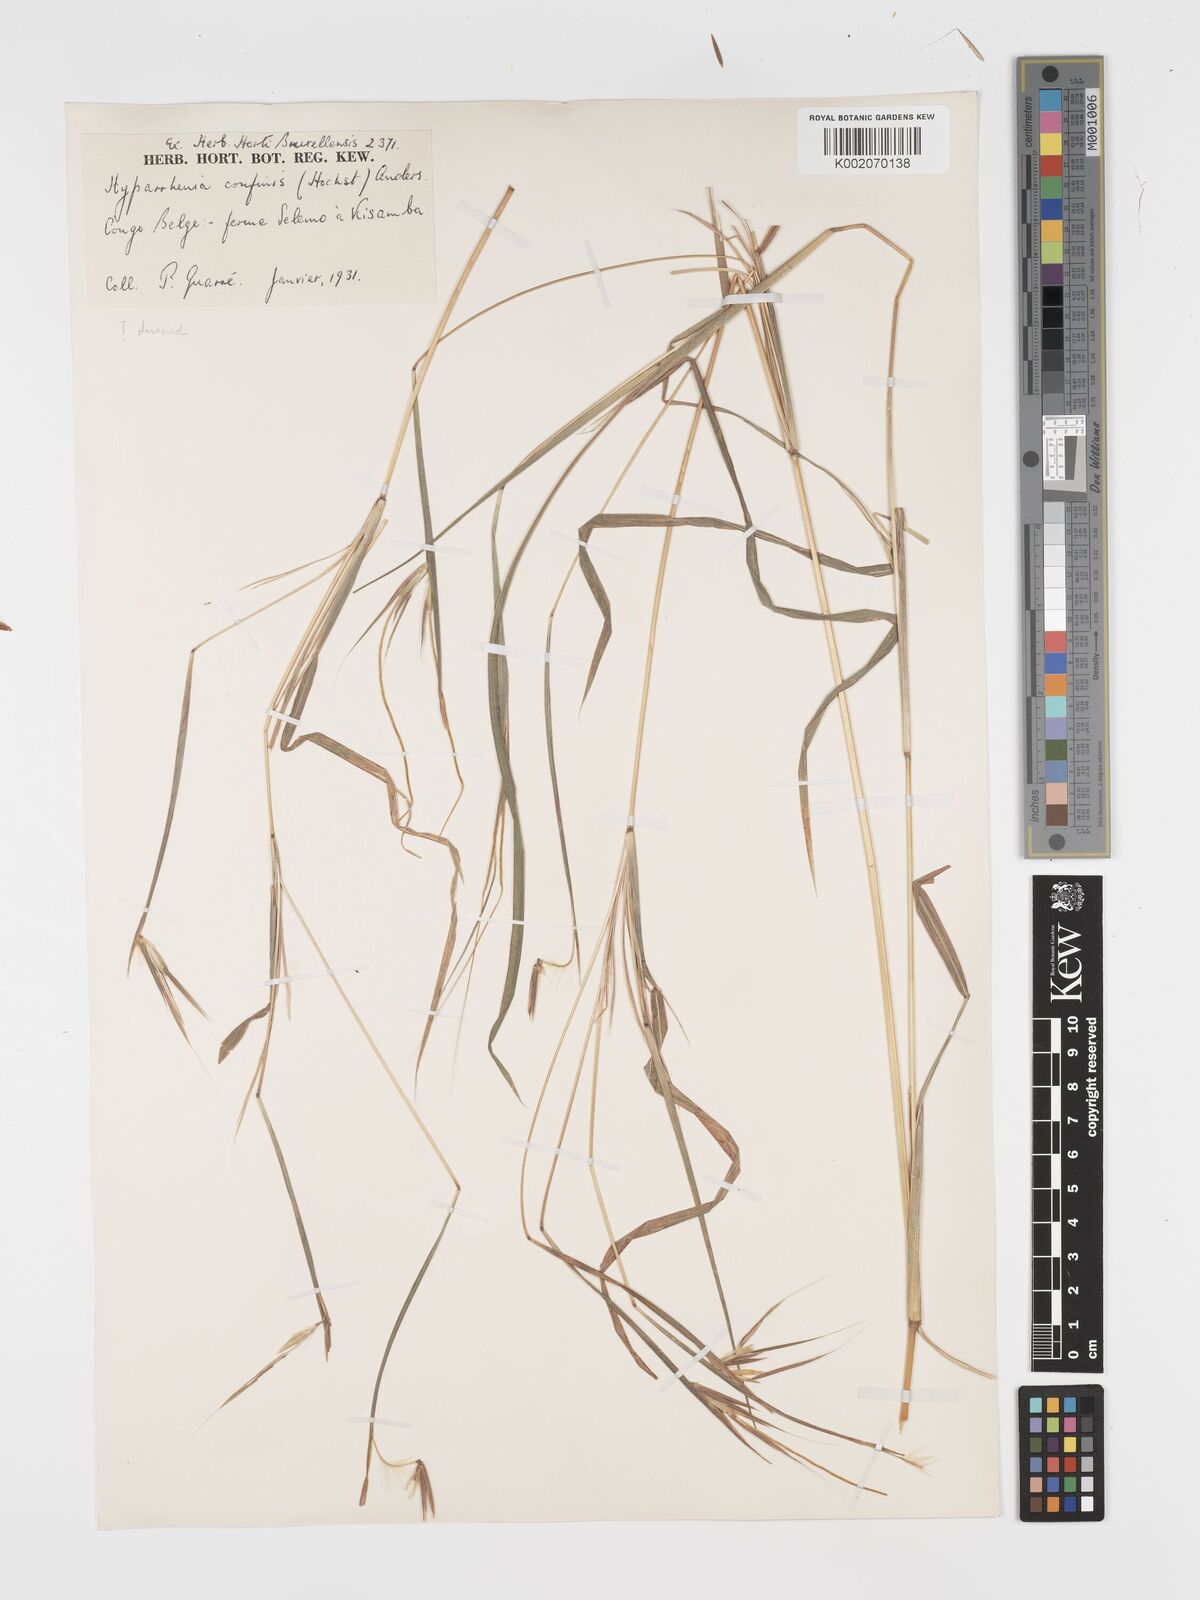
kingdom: Plantae
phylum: Tracheophyta
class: Liliopsida
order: Poales
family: Poaceae
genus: Hyparrhenia
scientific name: Hyparrhenia niariensis
